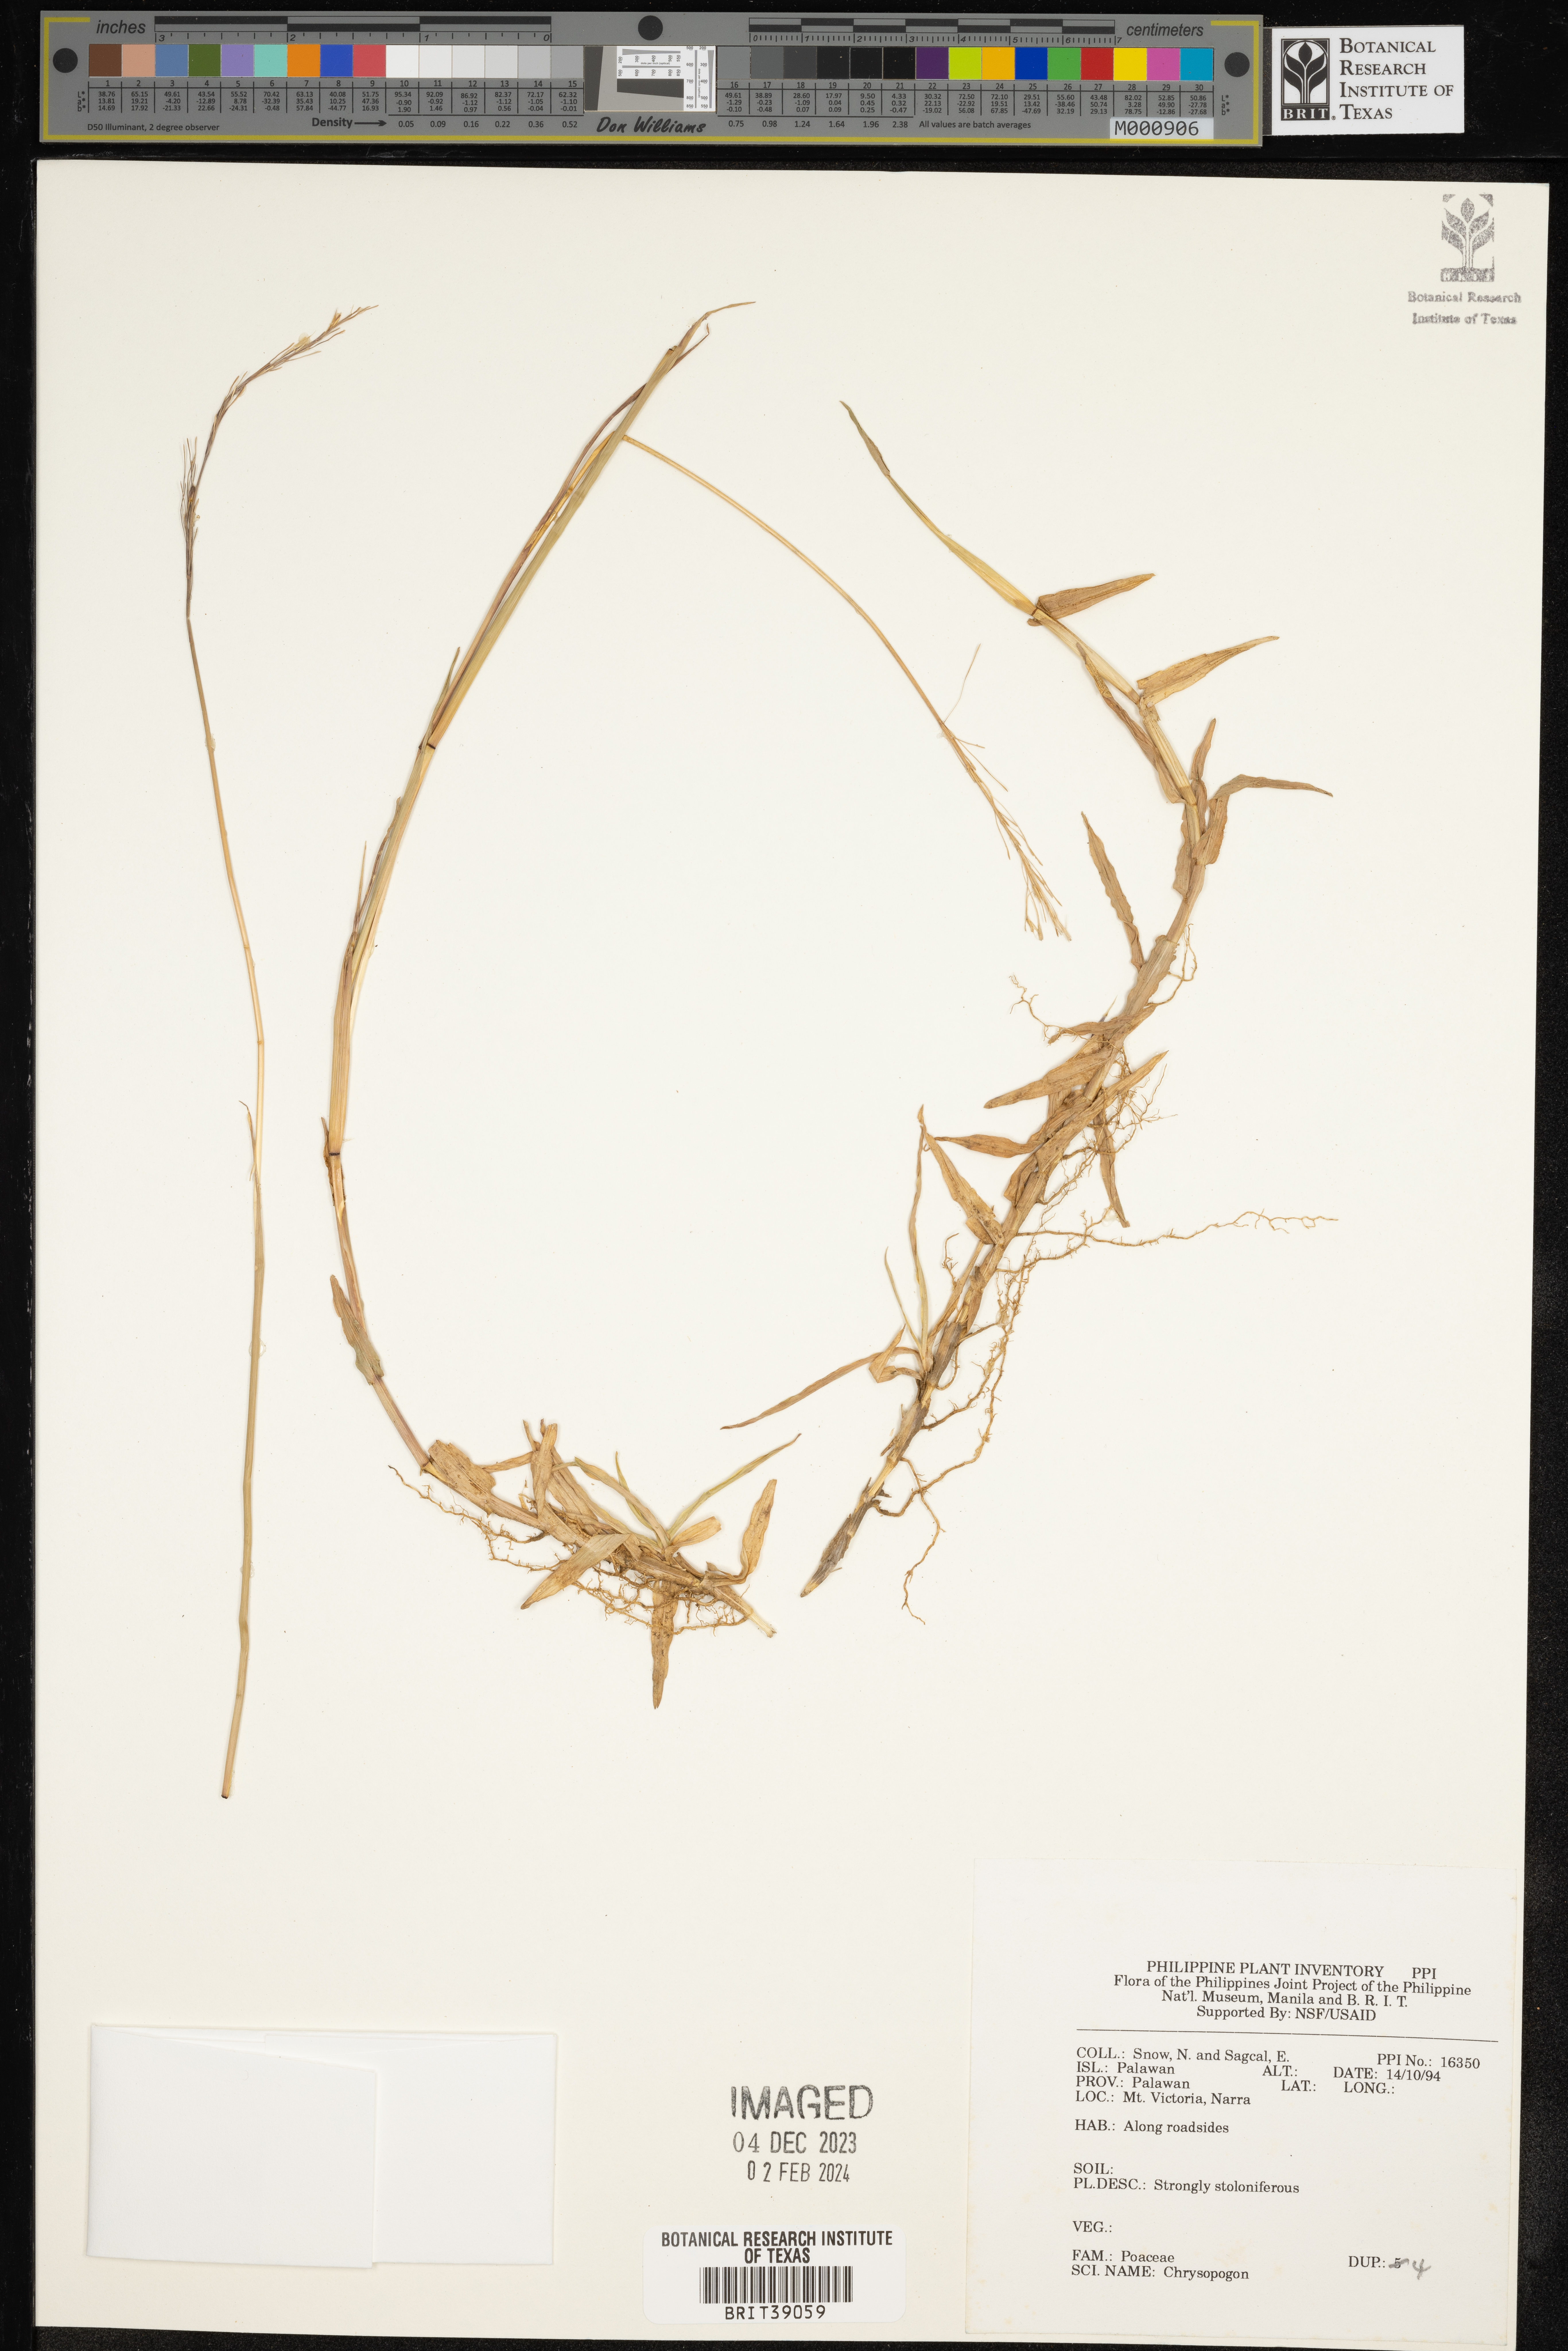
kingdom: Plantae
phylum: Tracheophyta
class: Liliopsida
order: Poales
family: Poaceae
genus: Chrysopogon
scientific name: Chrysopogon
